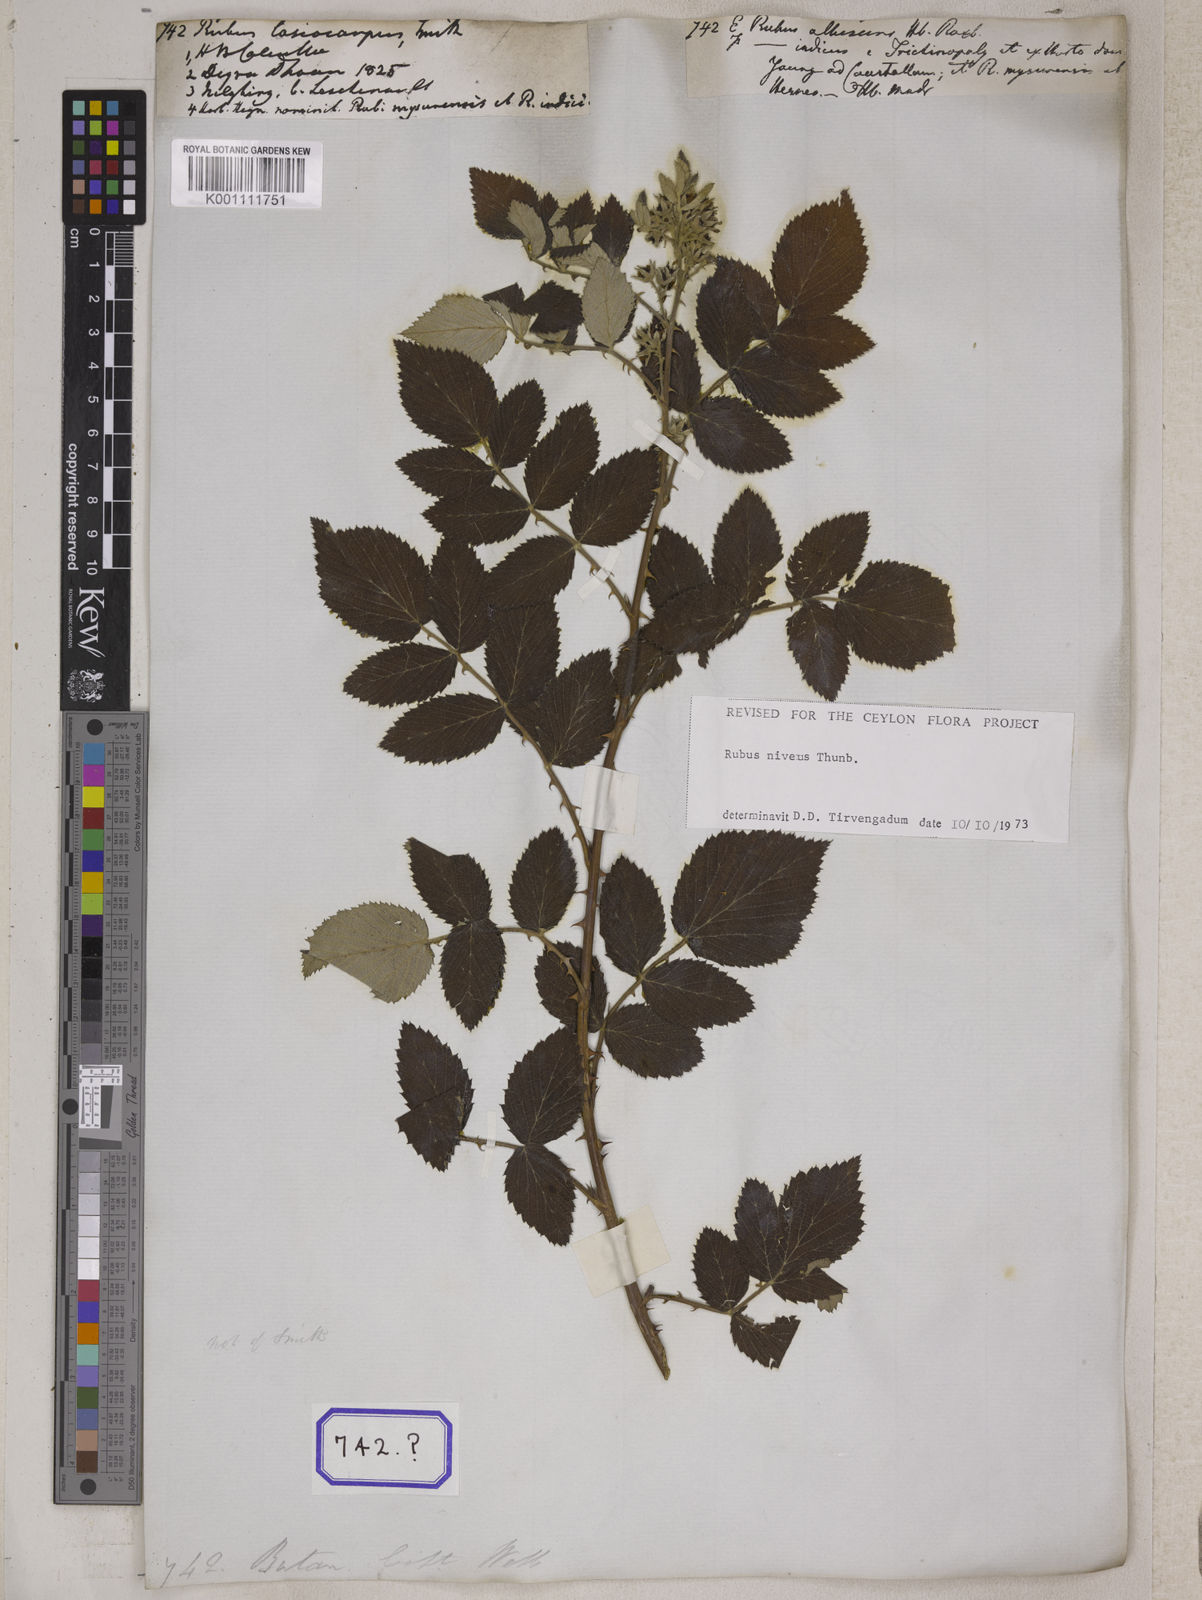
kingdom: Plantae
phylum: Tracheophyta
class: Magnoliopsida
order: Rosales
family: Rosaceae
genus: Rubus
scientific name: Rubus niveus
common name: Snowpeaks raspberry
